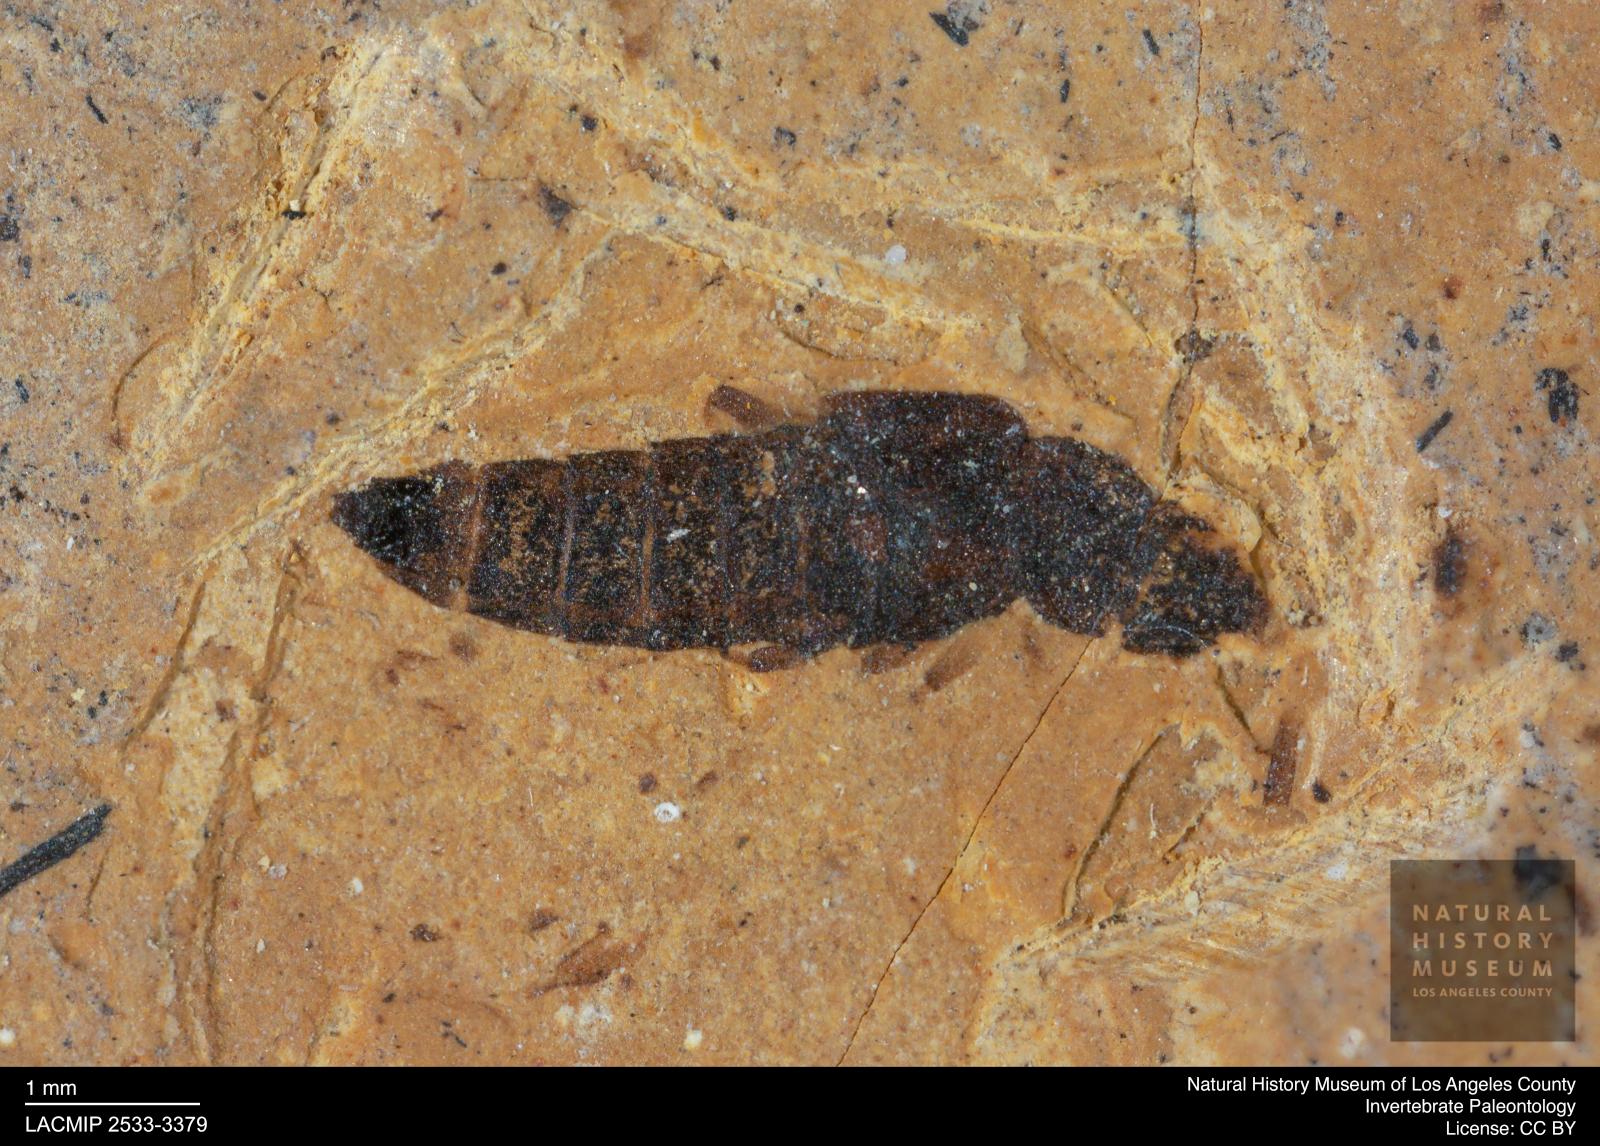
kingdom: Animalia
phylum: Arthropoda
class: Insecta
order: Coleoptera
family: Staphylinidae
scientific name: Staphylinidae
